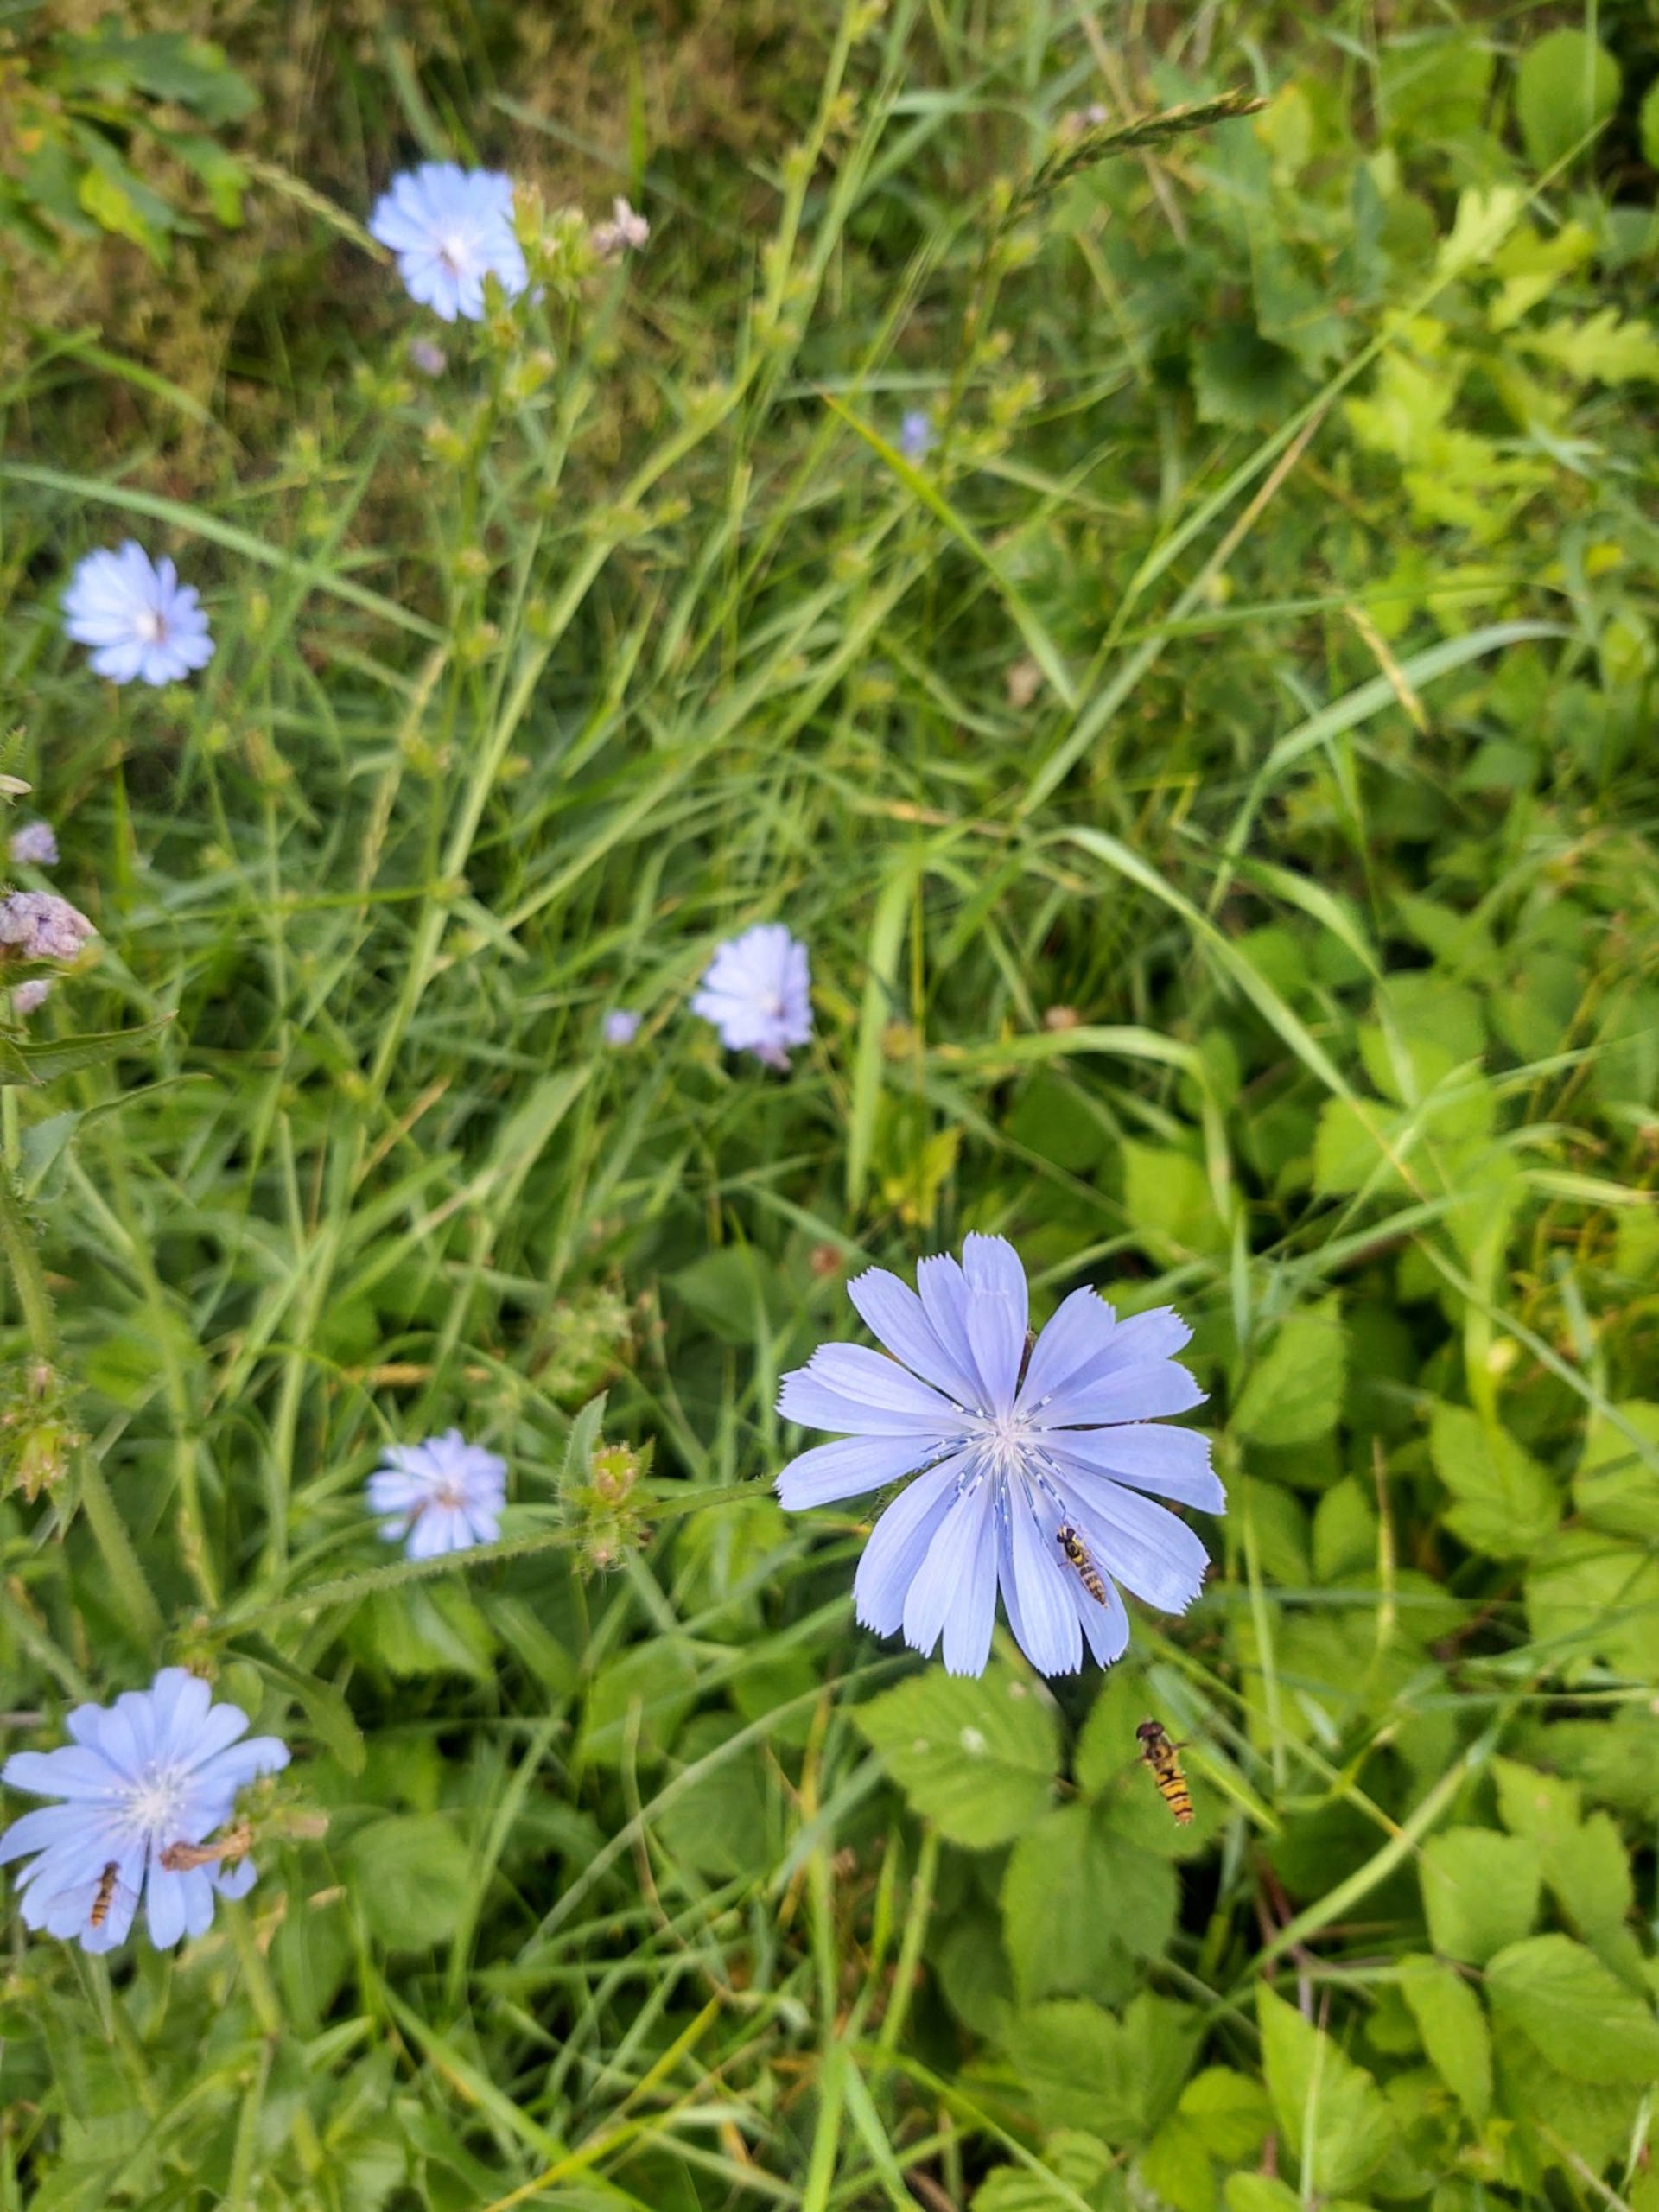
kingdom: Plantae
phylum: Tracheophyta
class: Magnoliopsida
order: Asterales
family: Asteraceae
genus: Cichorium
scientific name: Cichorium intybus
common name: Cikorie
